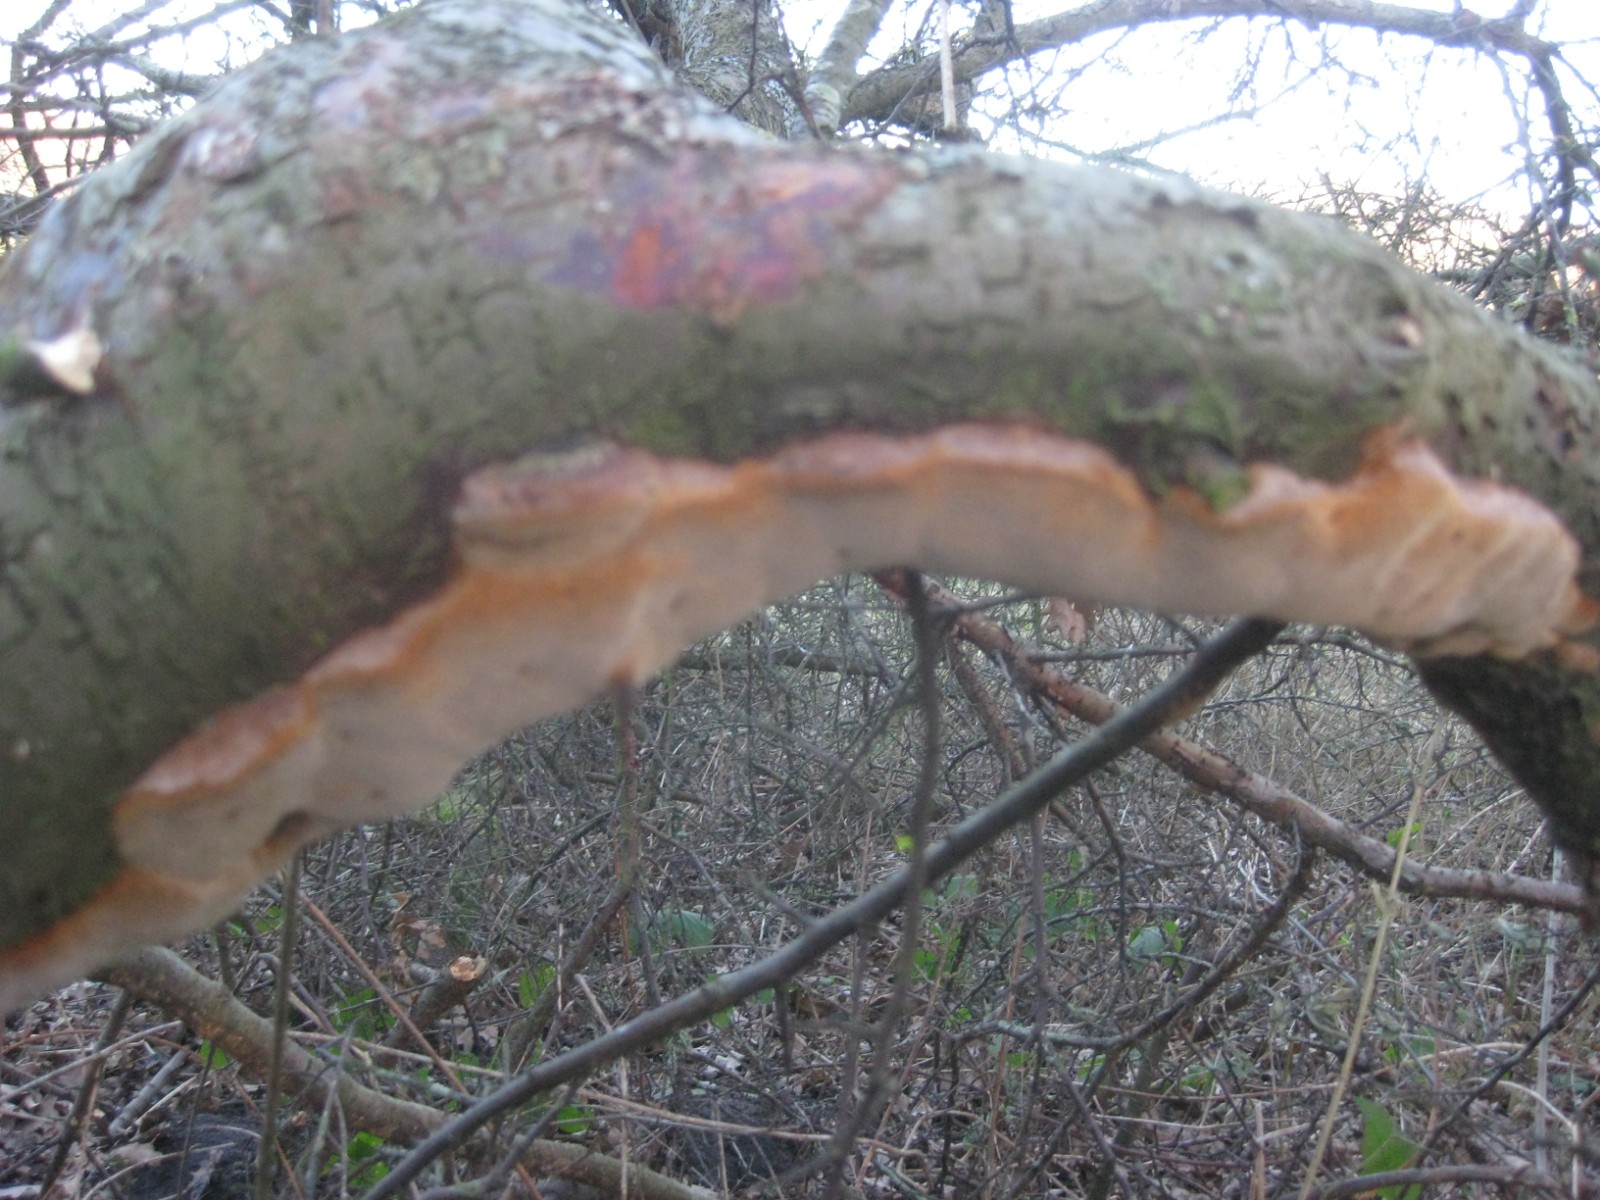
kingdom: Fungi
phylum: Basidiomycota
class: Agaricomycetes
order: Hymenochaetales
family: Hymenochaetaceae
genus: Phellinus
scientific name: Phellinus pomaceus
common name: blomme-ildporesvamp
